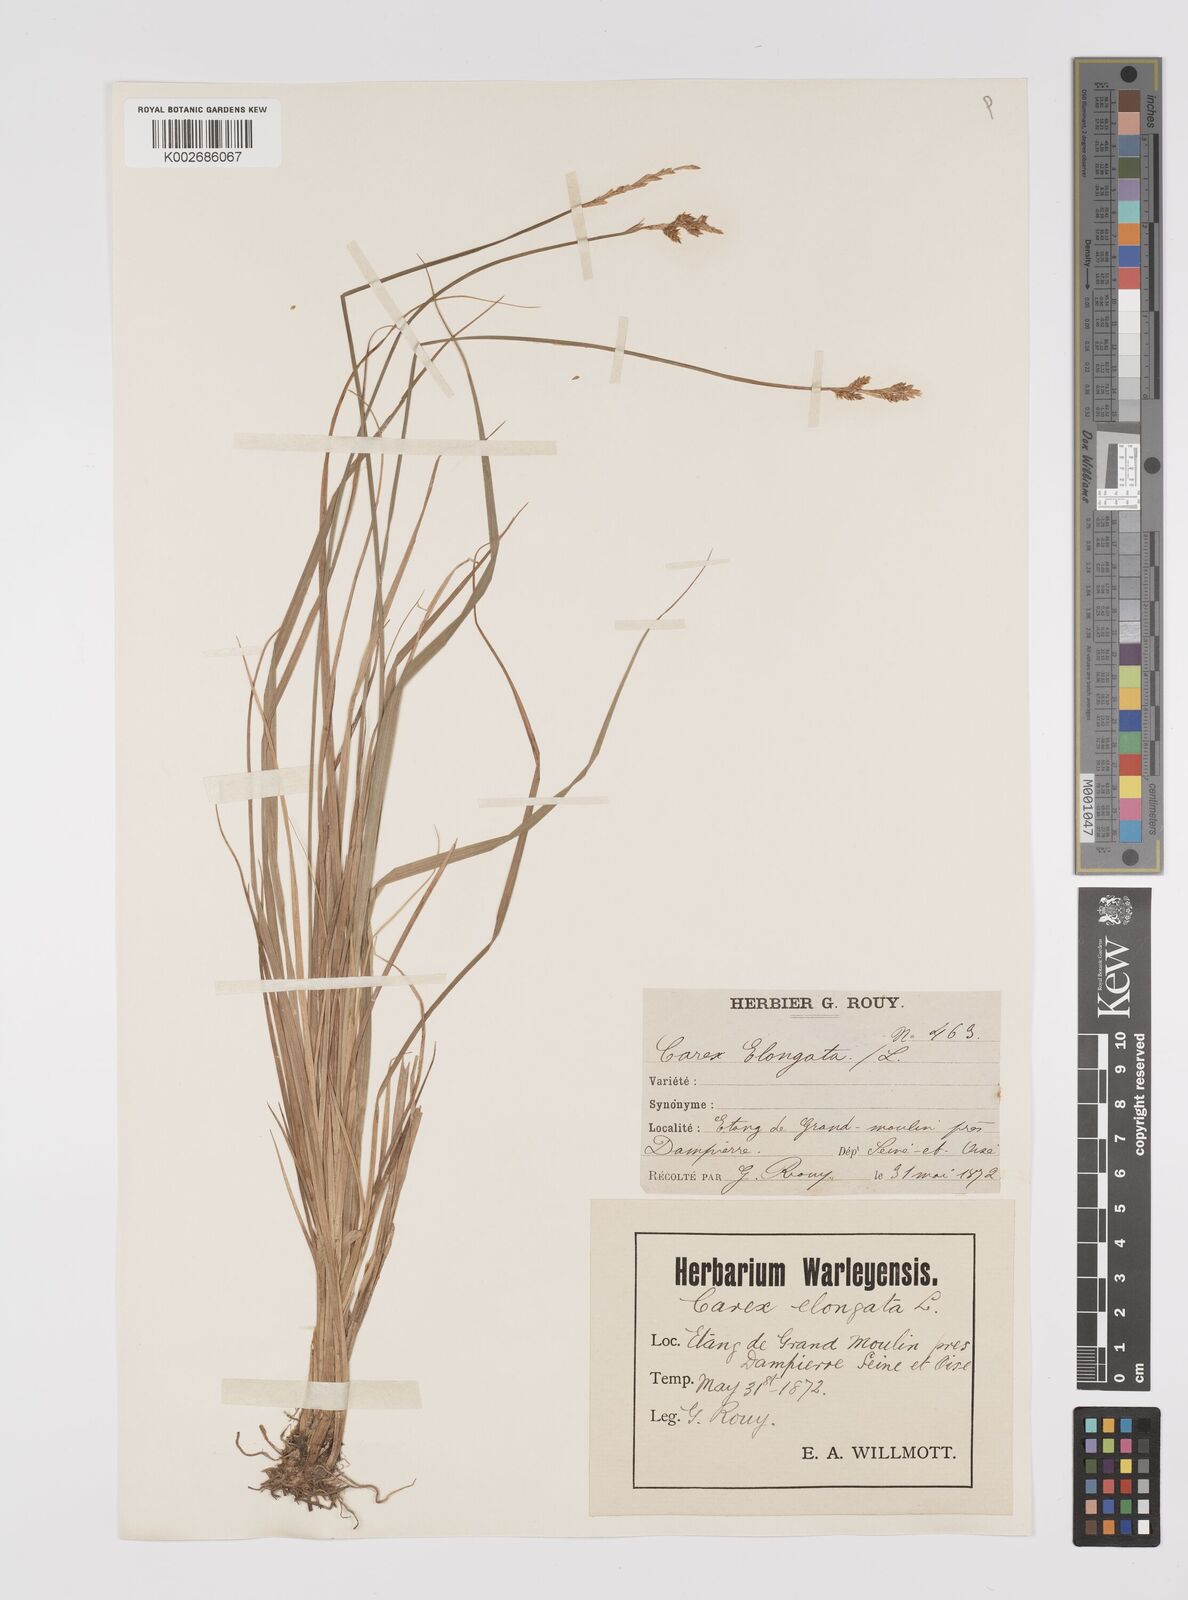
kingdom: Plantae
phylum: Tracheophyta
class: Liliopsida
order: Poales
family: Cyperaceae
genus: Carex
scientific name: Carex elongata
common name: Elongated sedge
